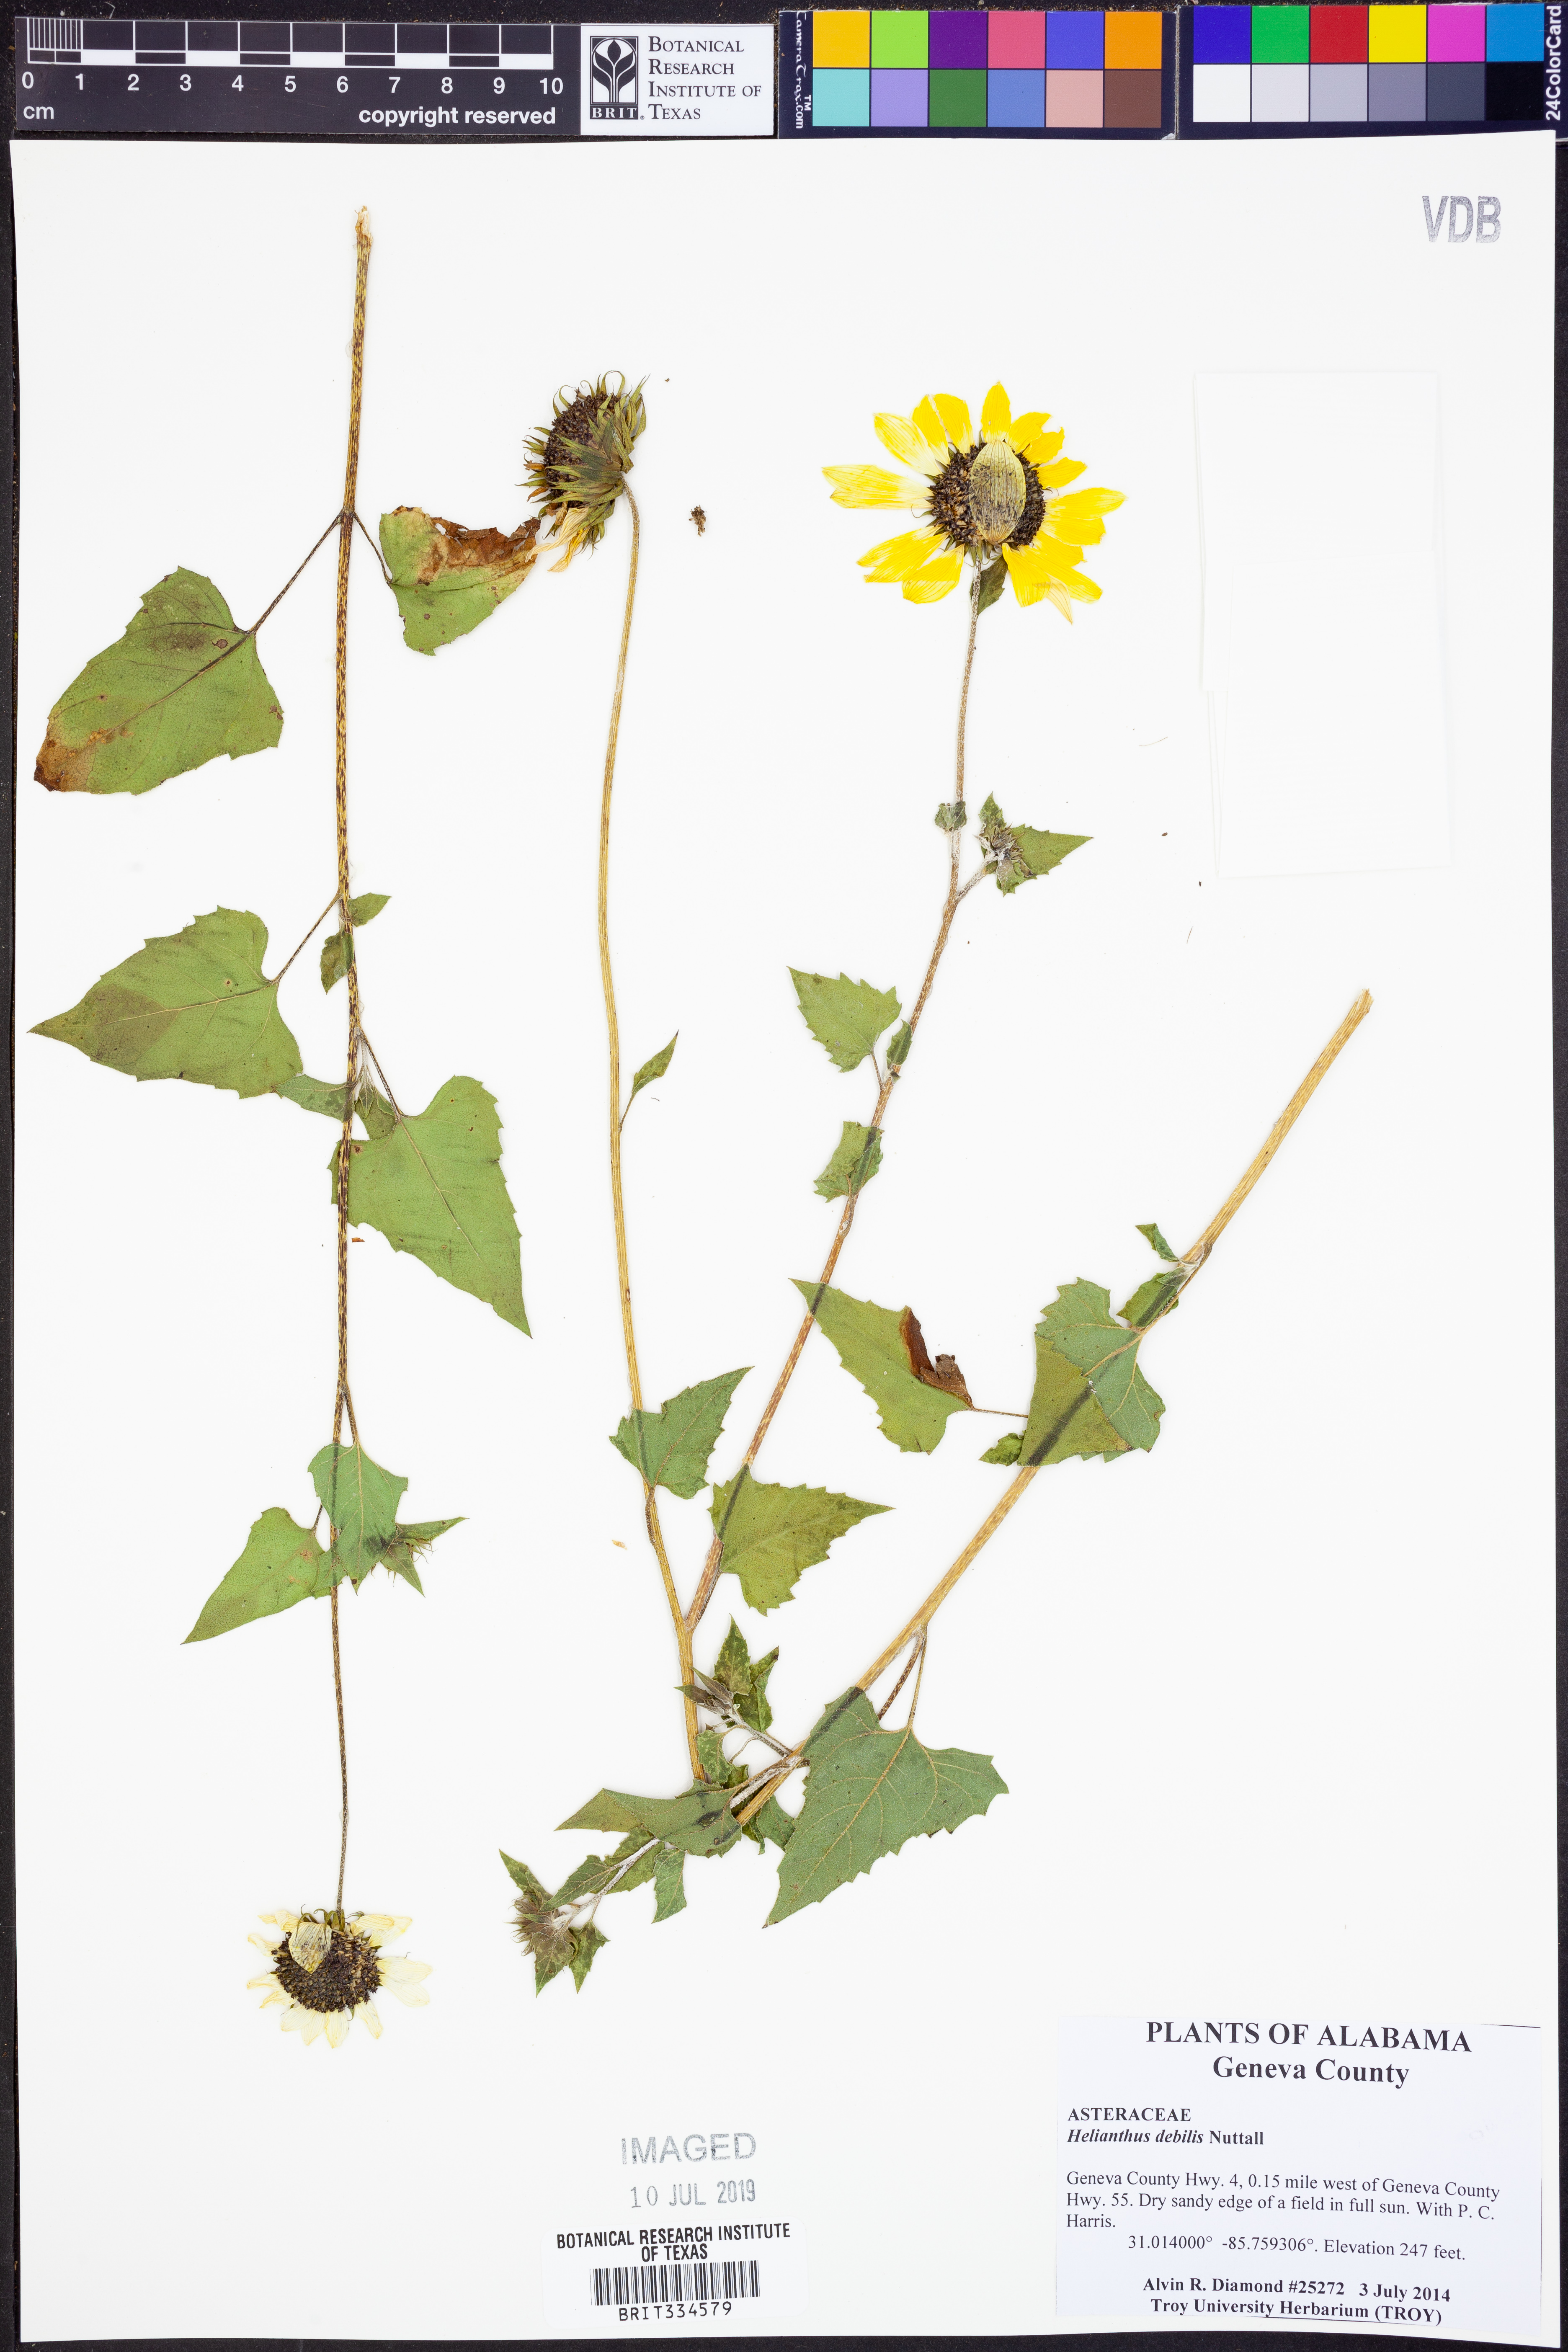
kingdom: Plantae
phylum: Tracheophyta
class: Magnoliopsida
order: Asterales
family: Asteraceae
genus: Helianthus
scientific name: Helianthus debilis
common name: Weak sunflower
